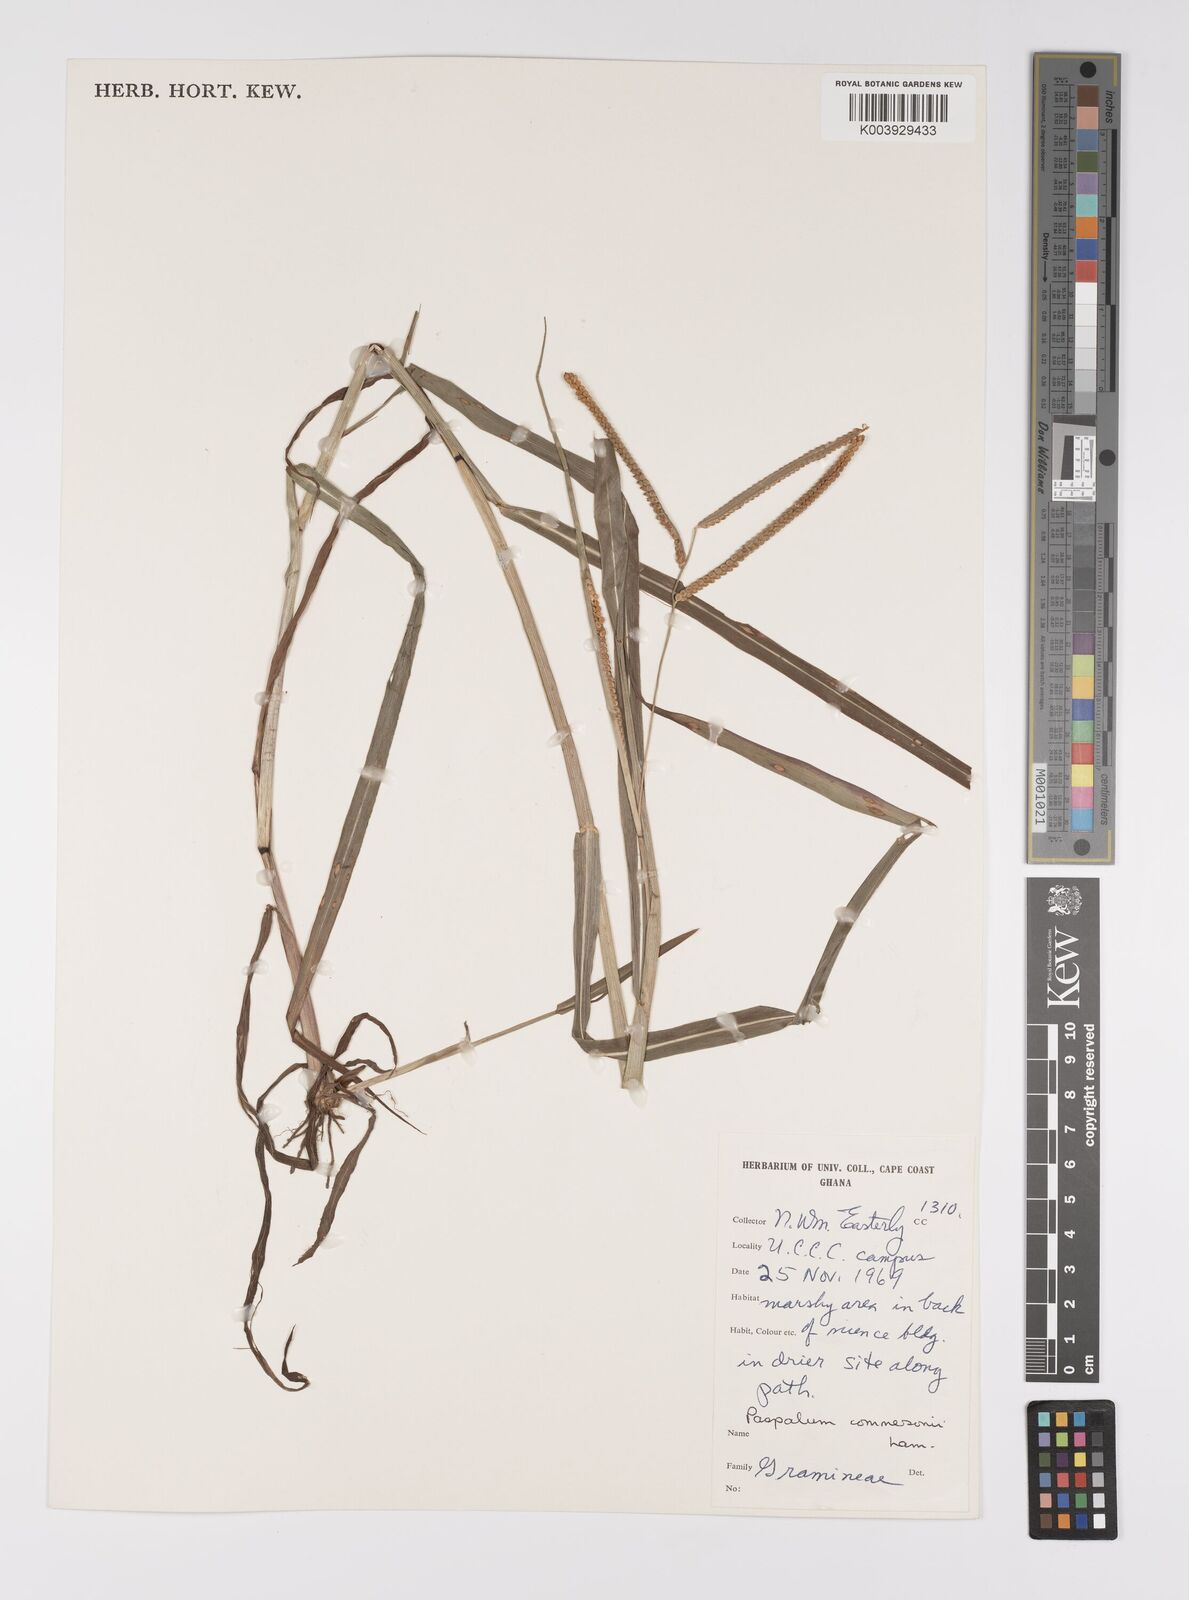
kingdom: Plantae
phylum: Tracheophyta
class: Liliopsida
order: Poales
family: Poaceae
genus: Paspalum
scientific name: Paspalum scrobiculatum
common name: Kodo millet
